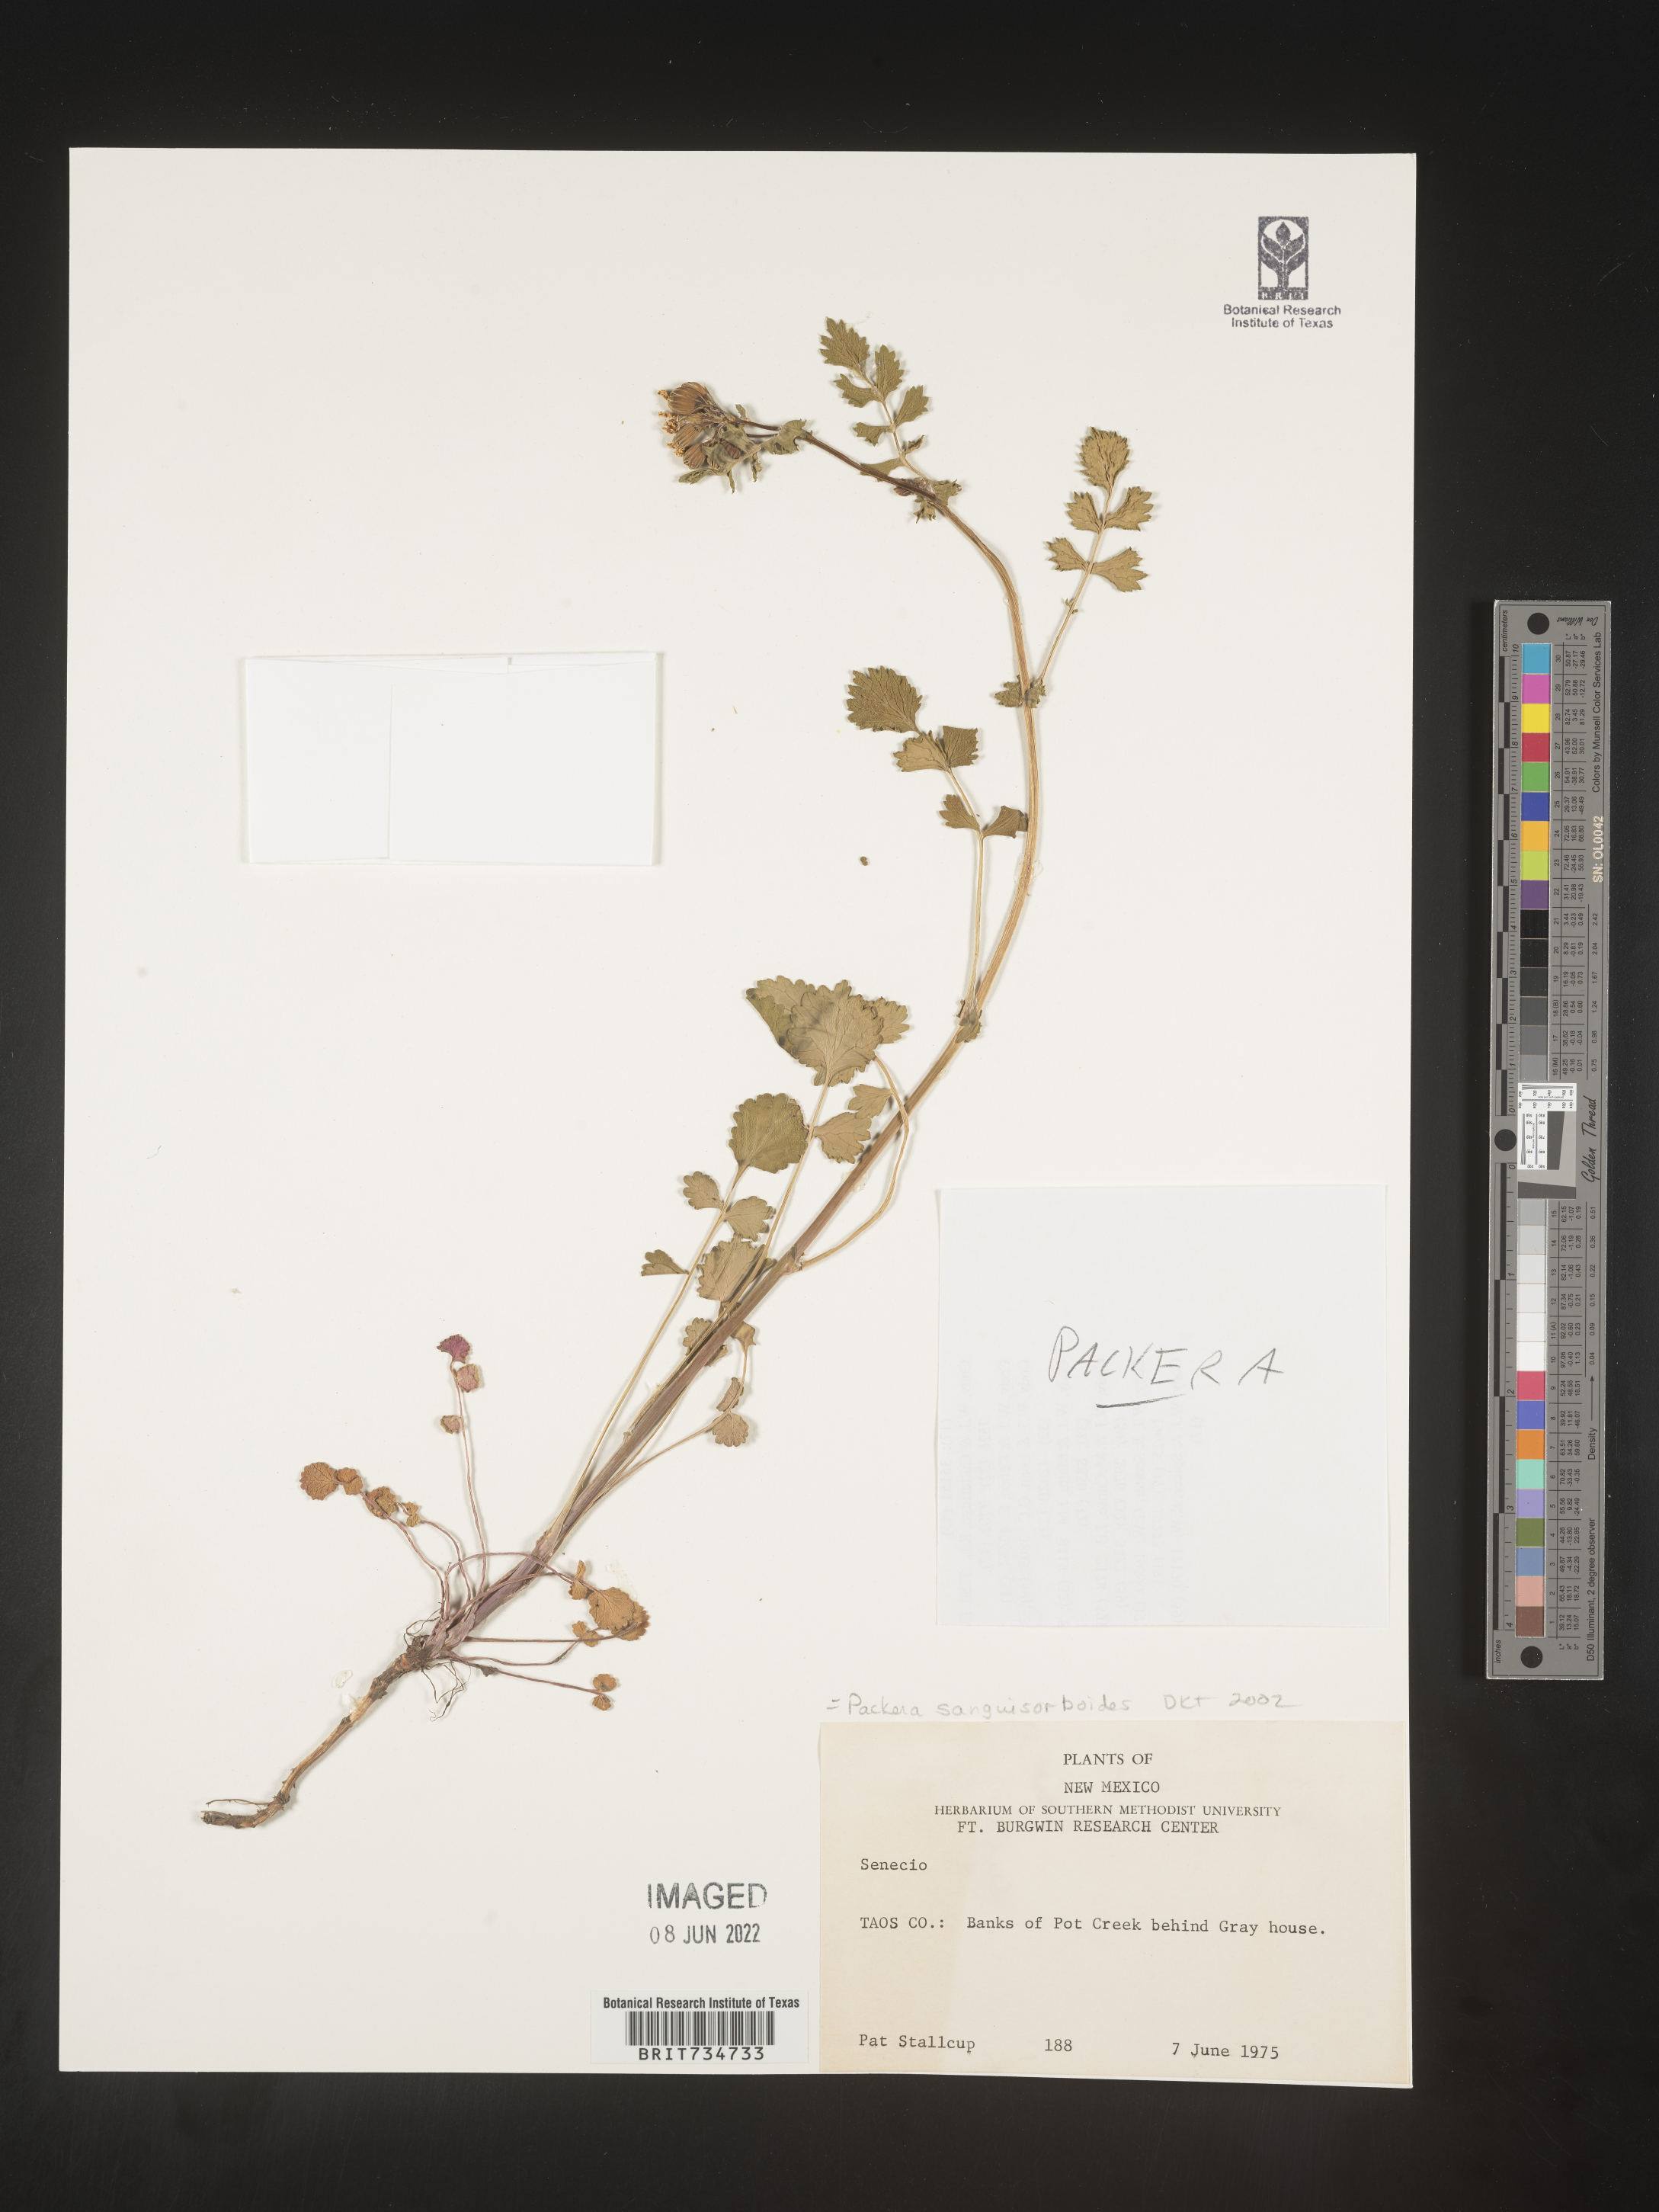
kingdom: Plantae
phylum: Tracheophyta
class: Magnoliopsida
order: Asterales
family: Asteraceae
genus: Packera
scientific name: Packera sanguisorboides
